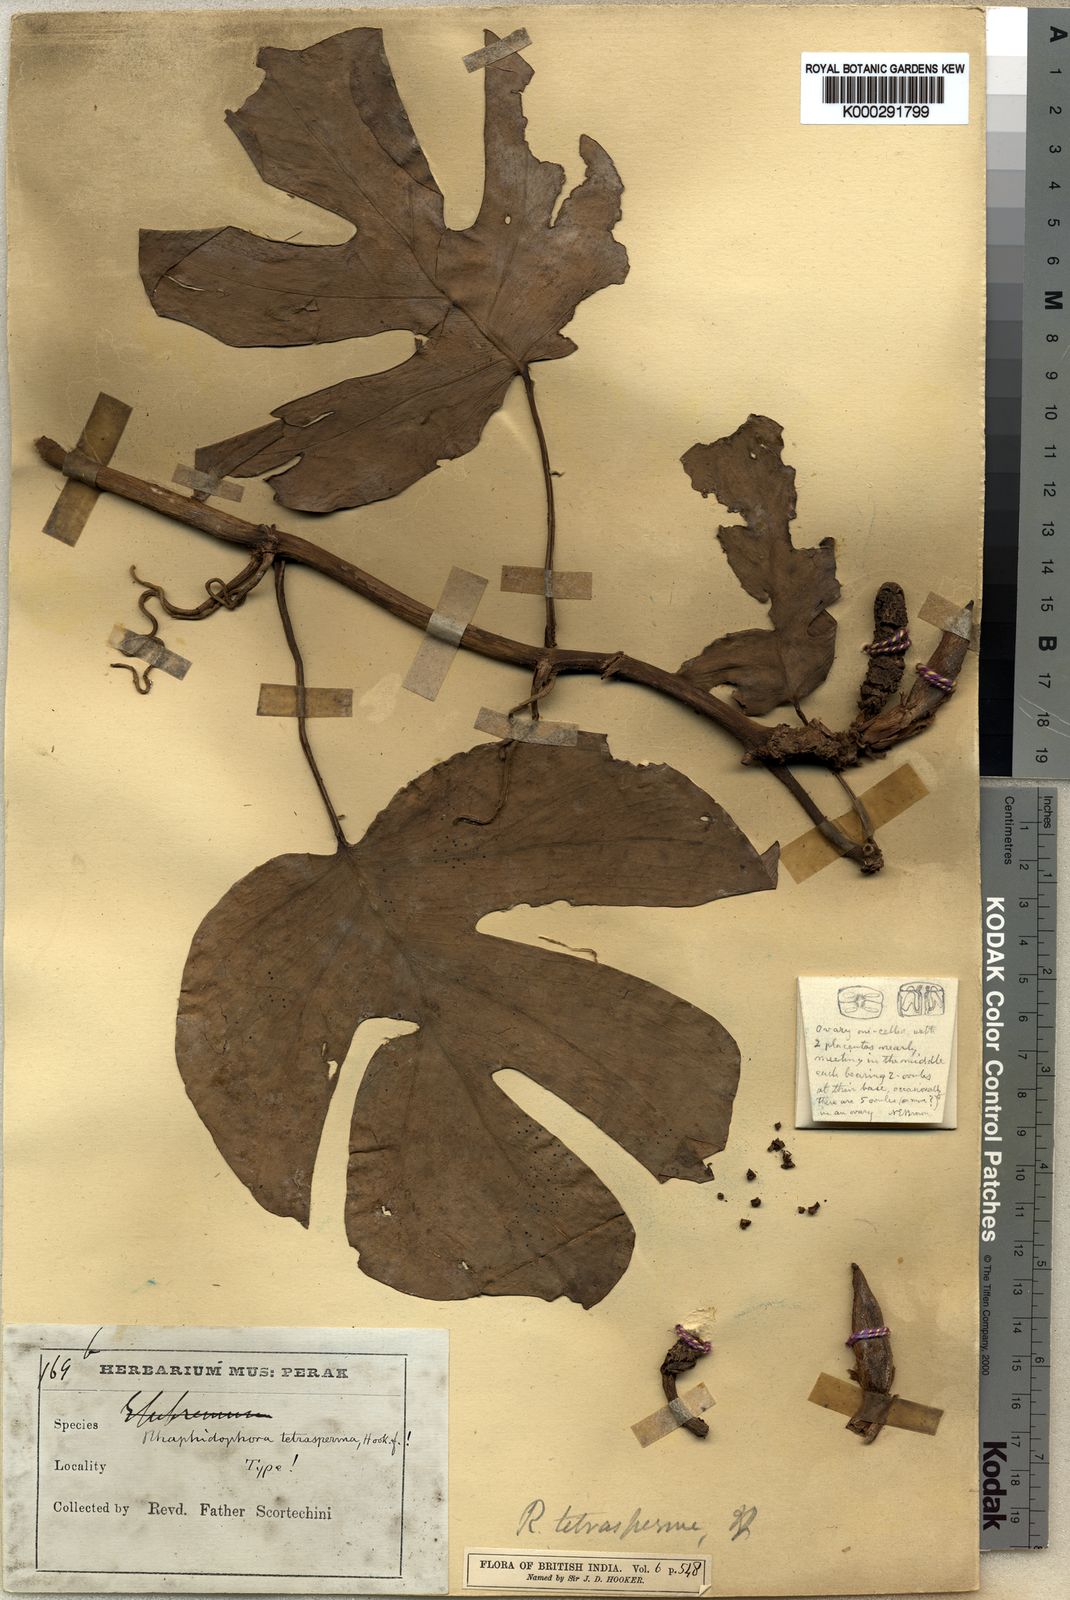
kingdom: Plantae
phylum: Tracheophyta
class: Liliopsida
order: Alismatales
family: Araceae
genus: Rhaphidophora
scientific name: Rhaphidophora tetrasperma
